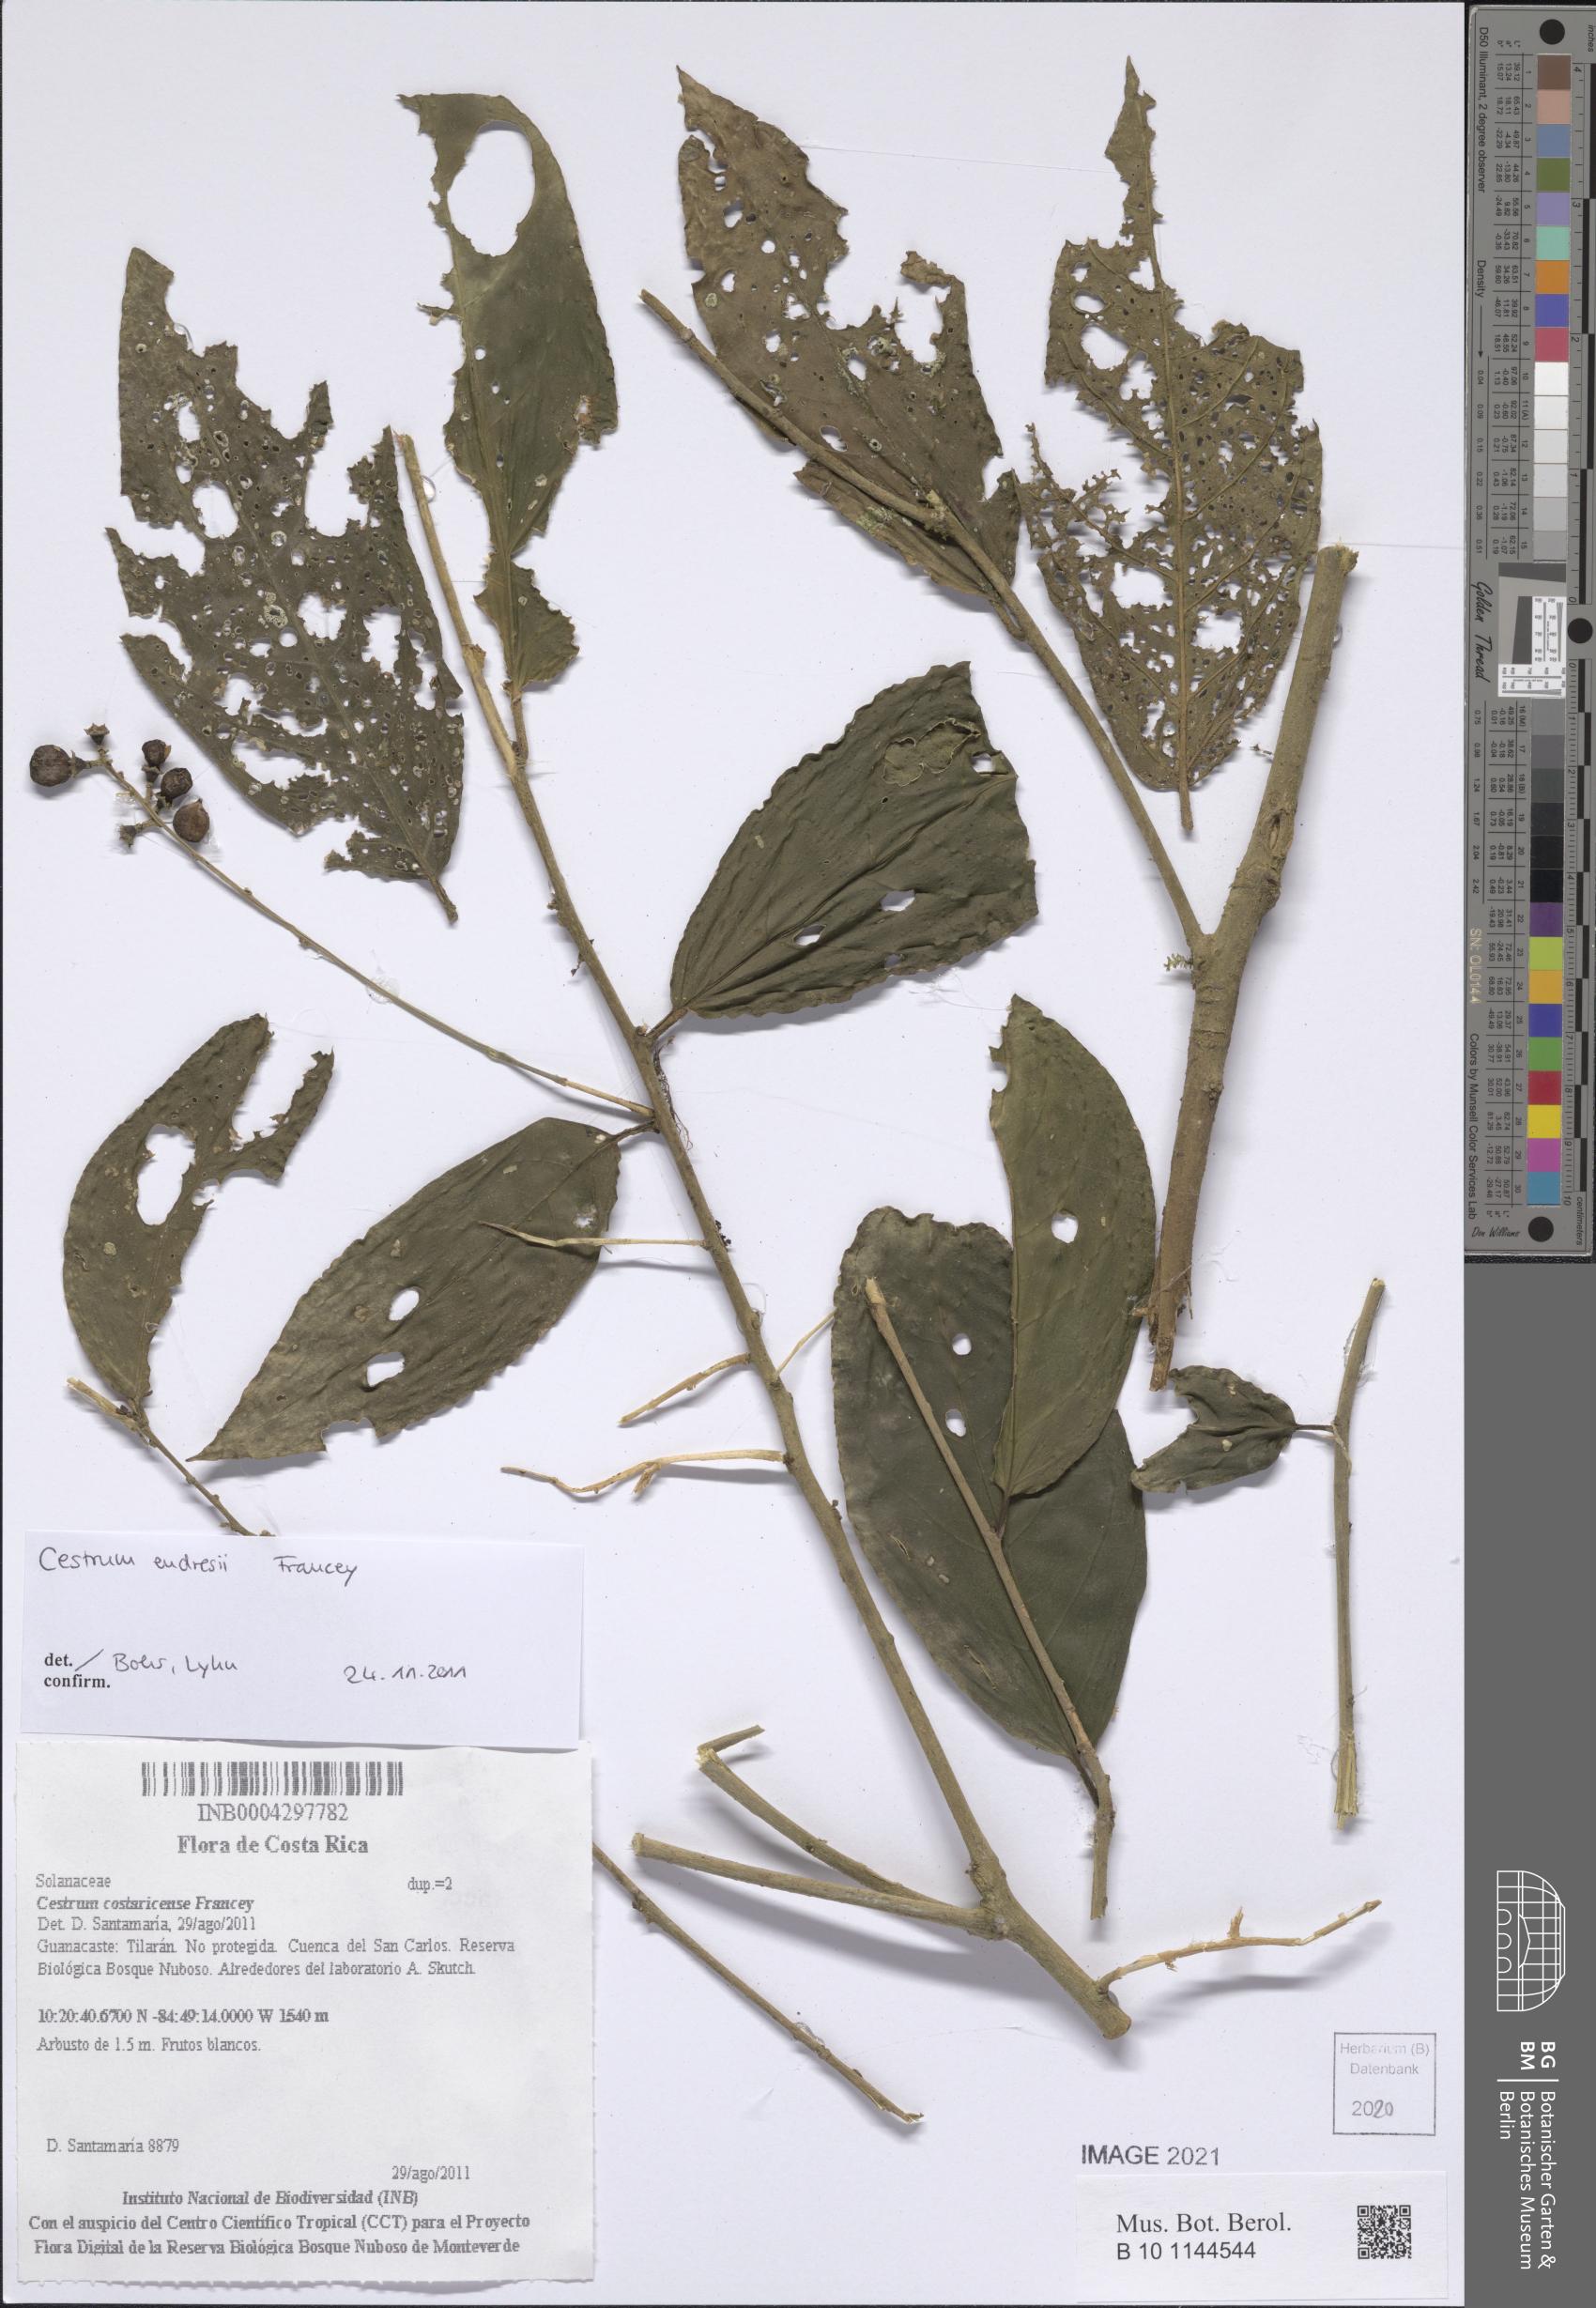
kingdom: Plantae
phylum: Tracheophyta
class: Magnoliopsida
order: Solanales
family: Solanaceae
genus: Cestrum
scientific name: Cestrum endresii
